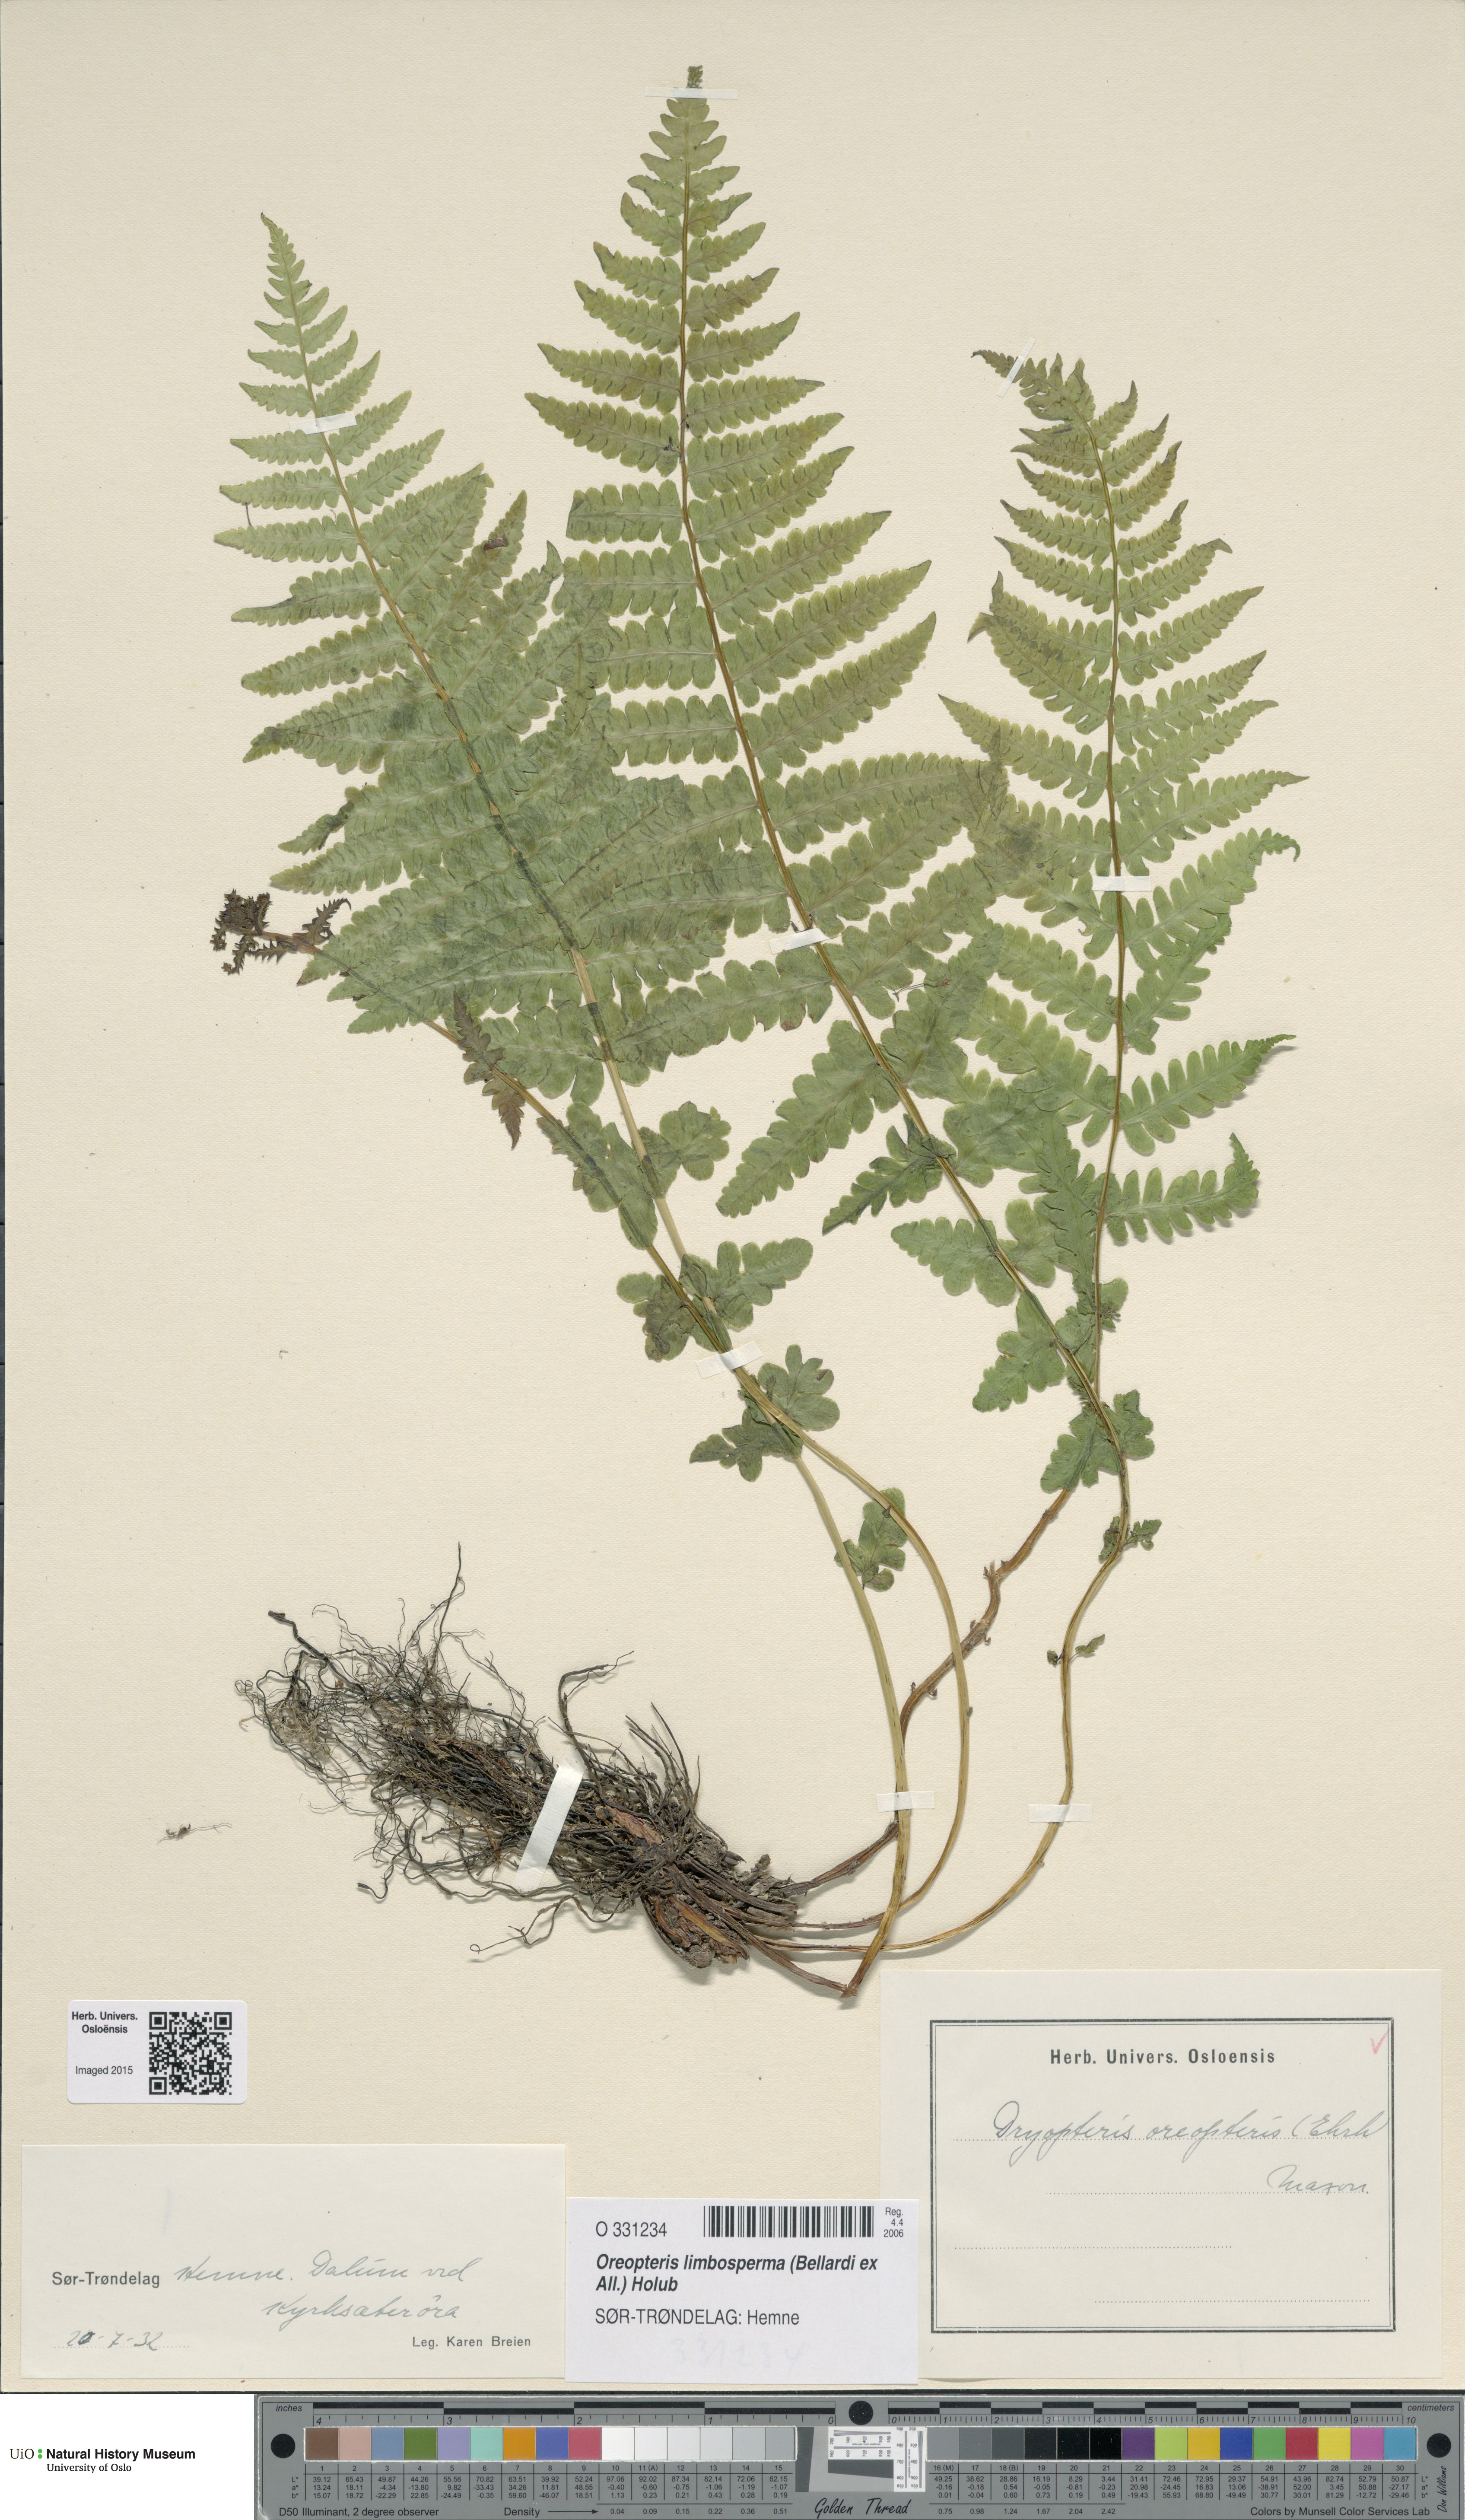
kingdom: Plantae
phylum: Tracheophyta
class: Polypodiopsida
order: Polypodiales
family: Thelypteridaceae
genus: Oreopteris
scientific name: Oreopteris limbosperma
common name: Lemon-scented fern
